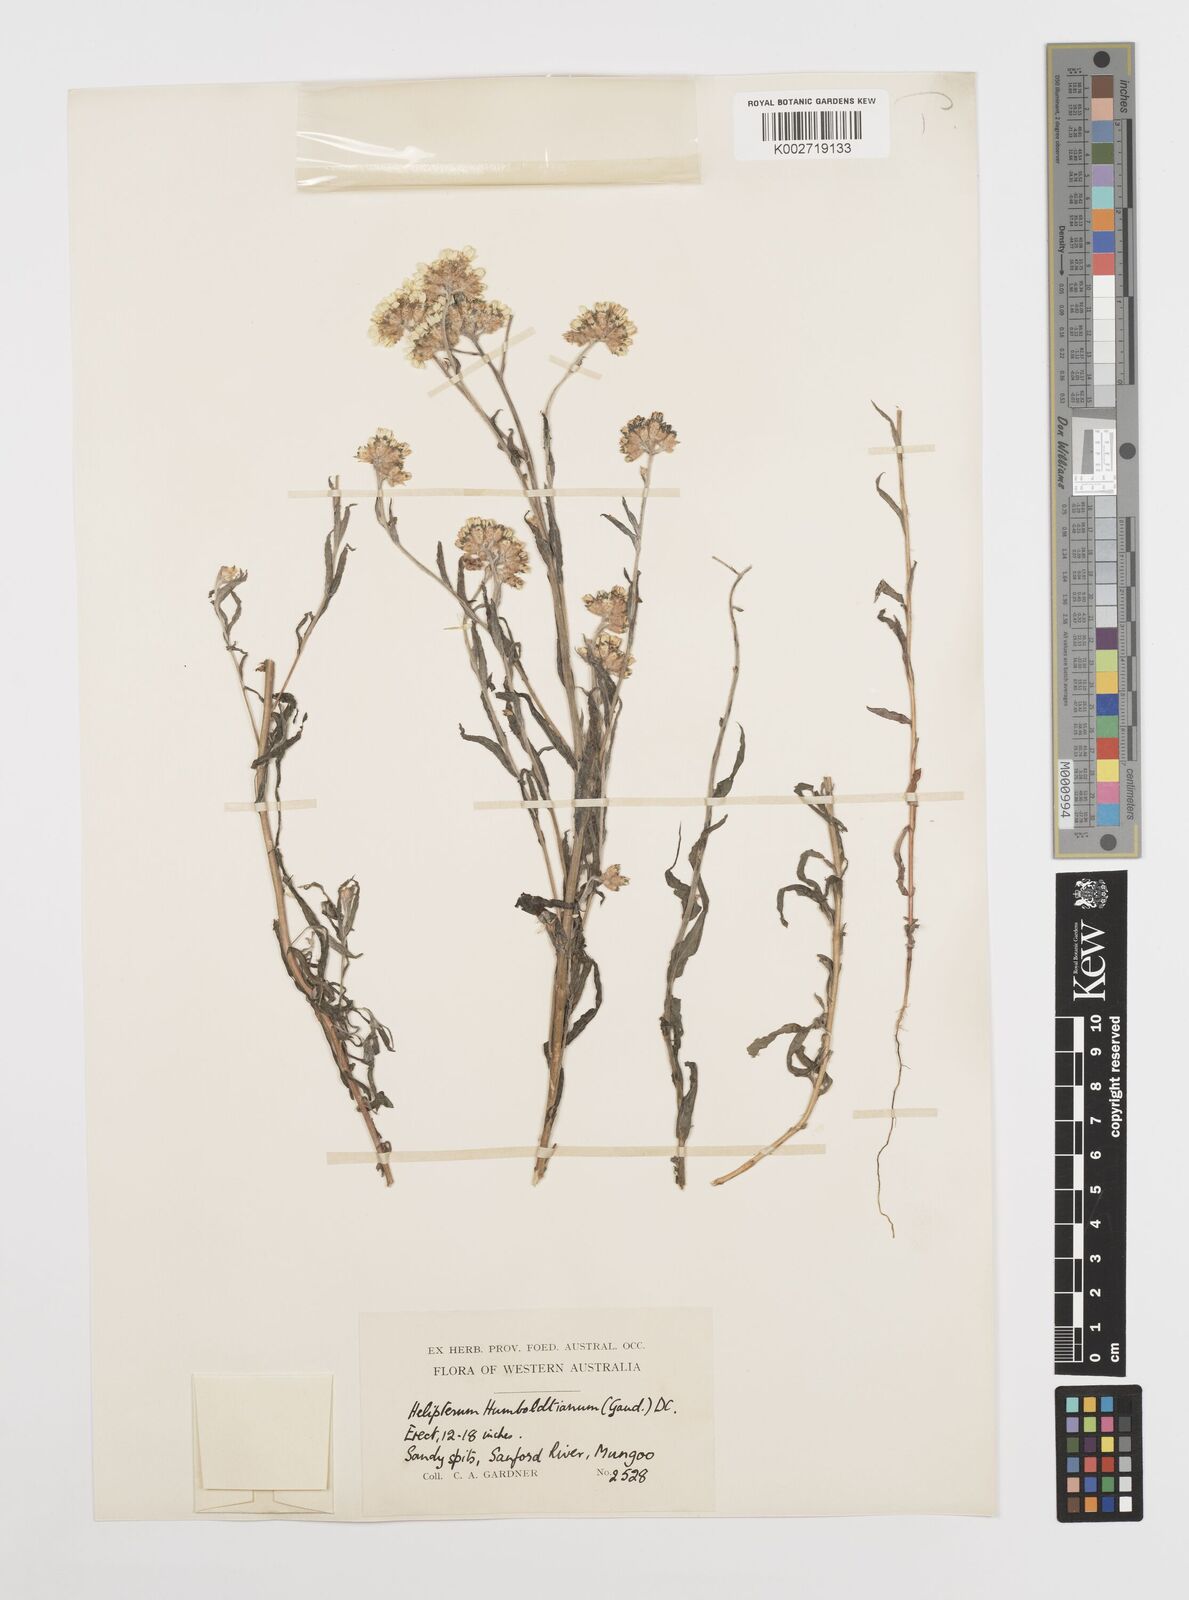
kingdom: Plantae
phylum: Tracheophyta
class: Magnoliopsida
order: Asterales
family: Asteraceae
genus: Rhodanthe
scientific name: Rhodanthe humboldtiana
